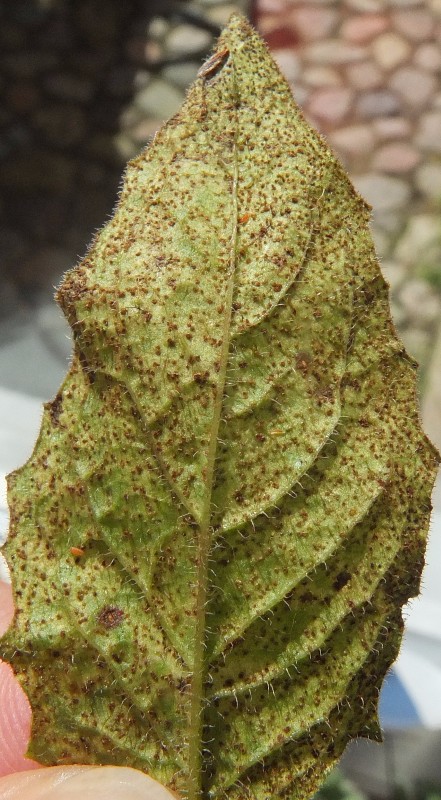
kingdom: Fungi
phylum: Basidiomycota
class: Pucciniomycetes
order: Pucciniales
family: Pucciniaceae
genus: Puccinia
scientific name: Puccinia lapsanae
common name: Nipplewort rust
